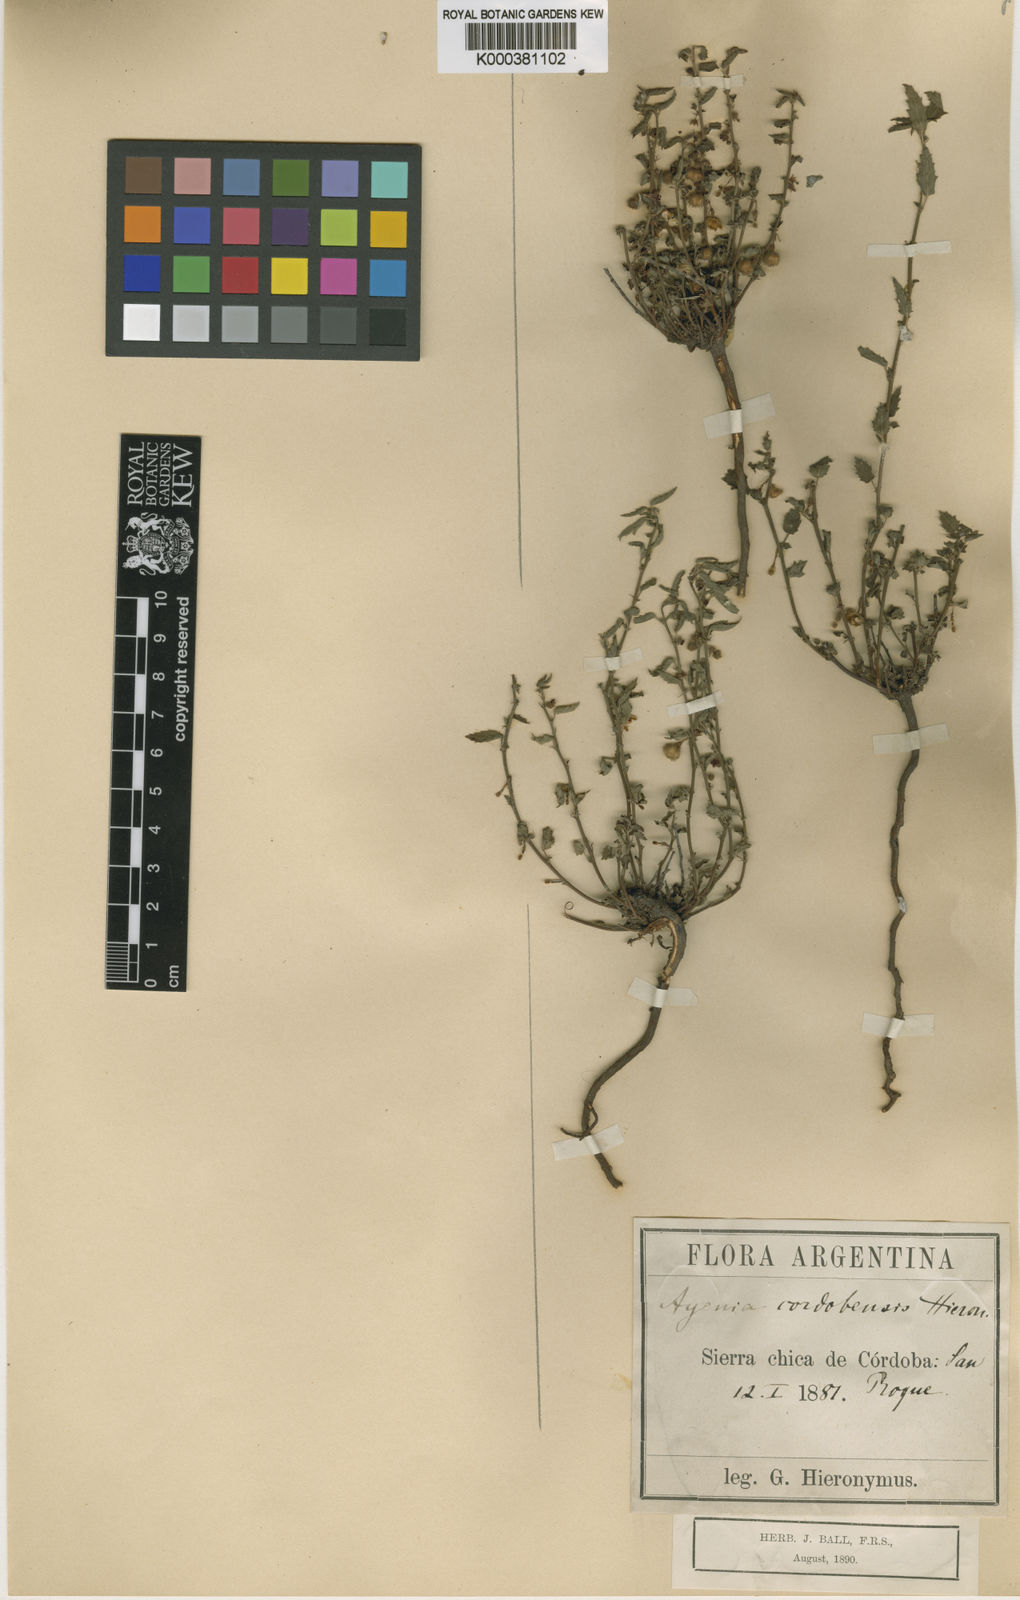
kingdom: Plantae
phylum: Tracheophyta
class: Magnoliopsida
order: Malvales
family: Malvaceae
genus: Ayenia
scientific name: Ayenia cordobensis
